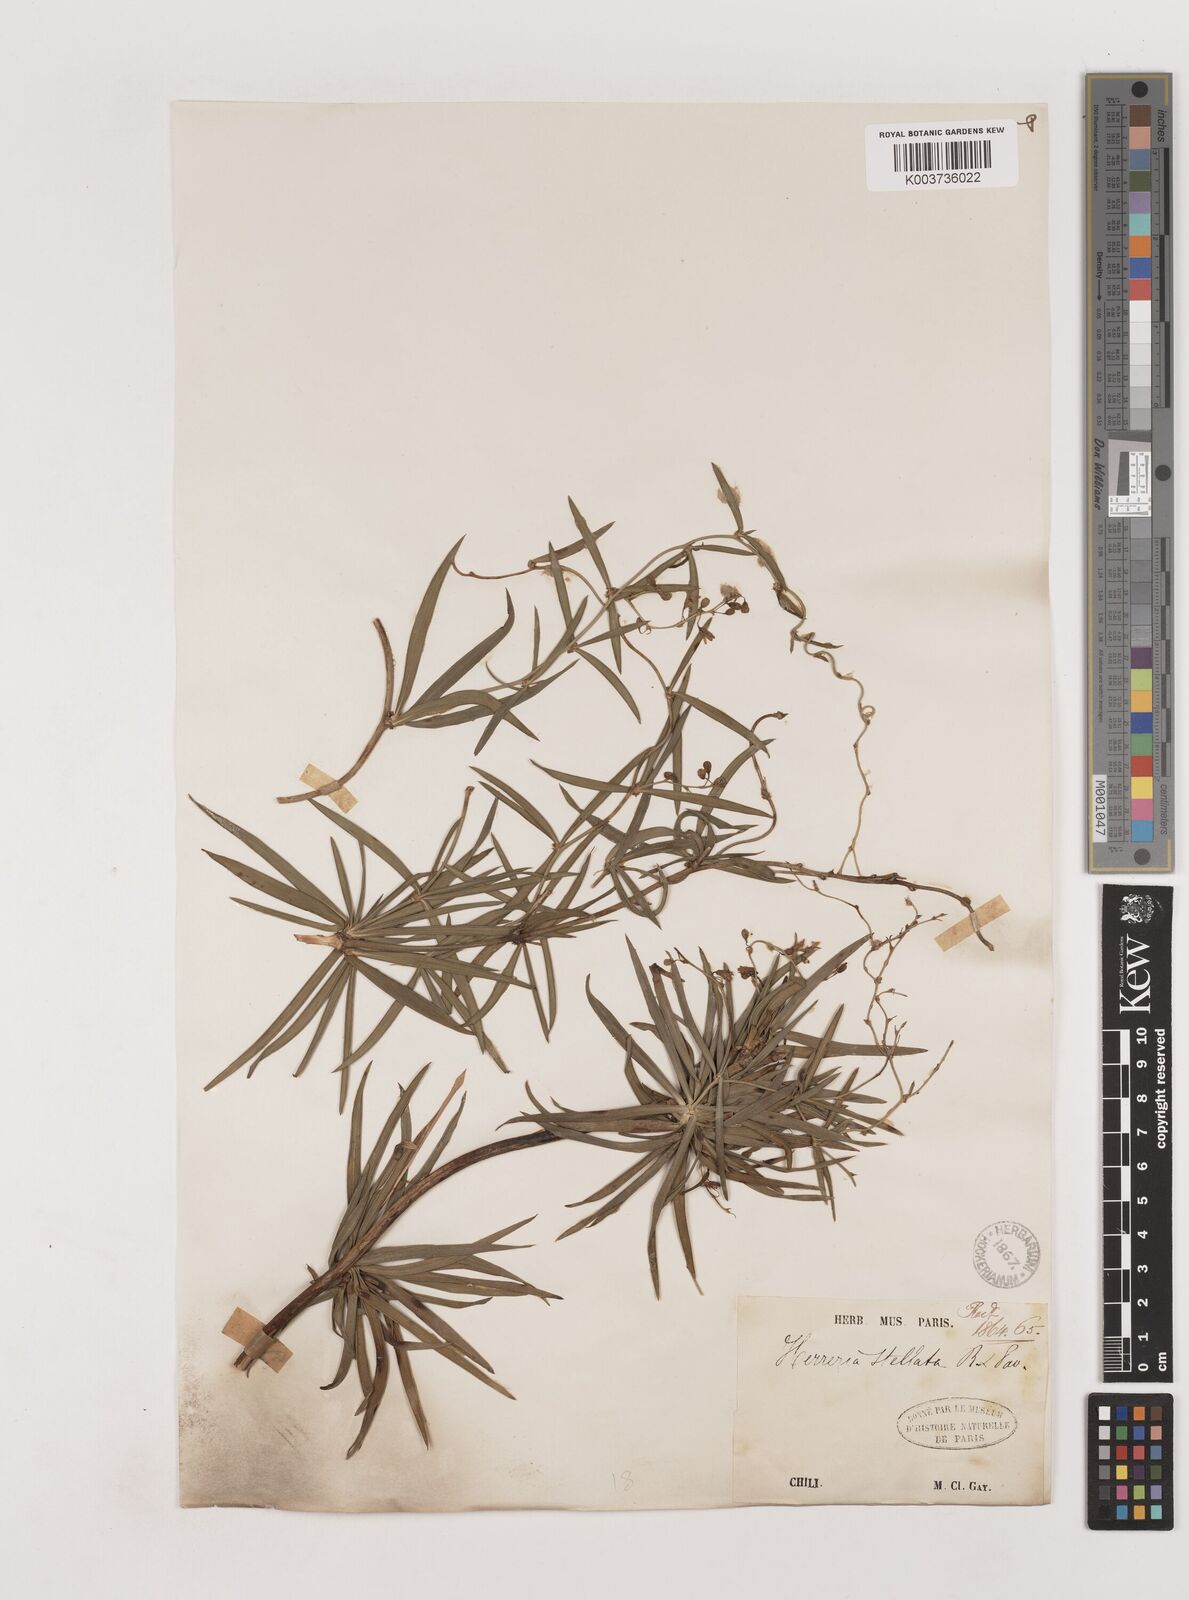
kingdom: Plantae
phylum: Tracheophyta
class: Liliopsida
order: Asparagales
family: Asparagaceae
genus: Herreria
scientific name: Herreria stellata
